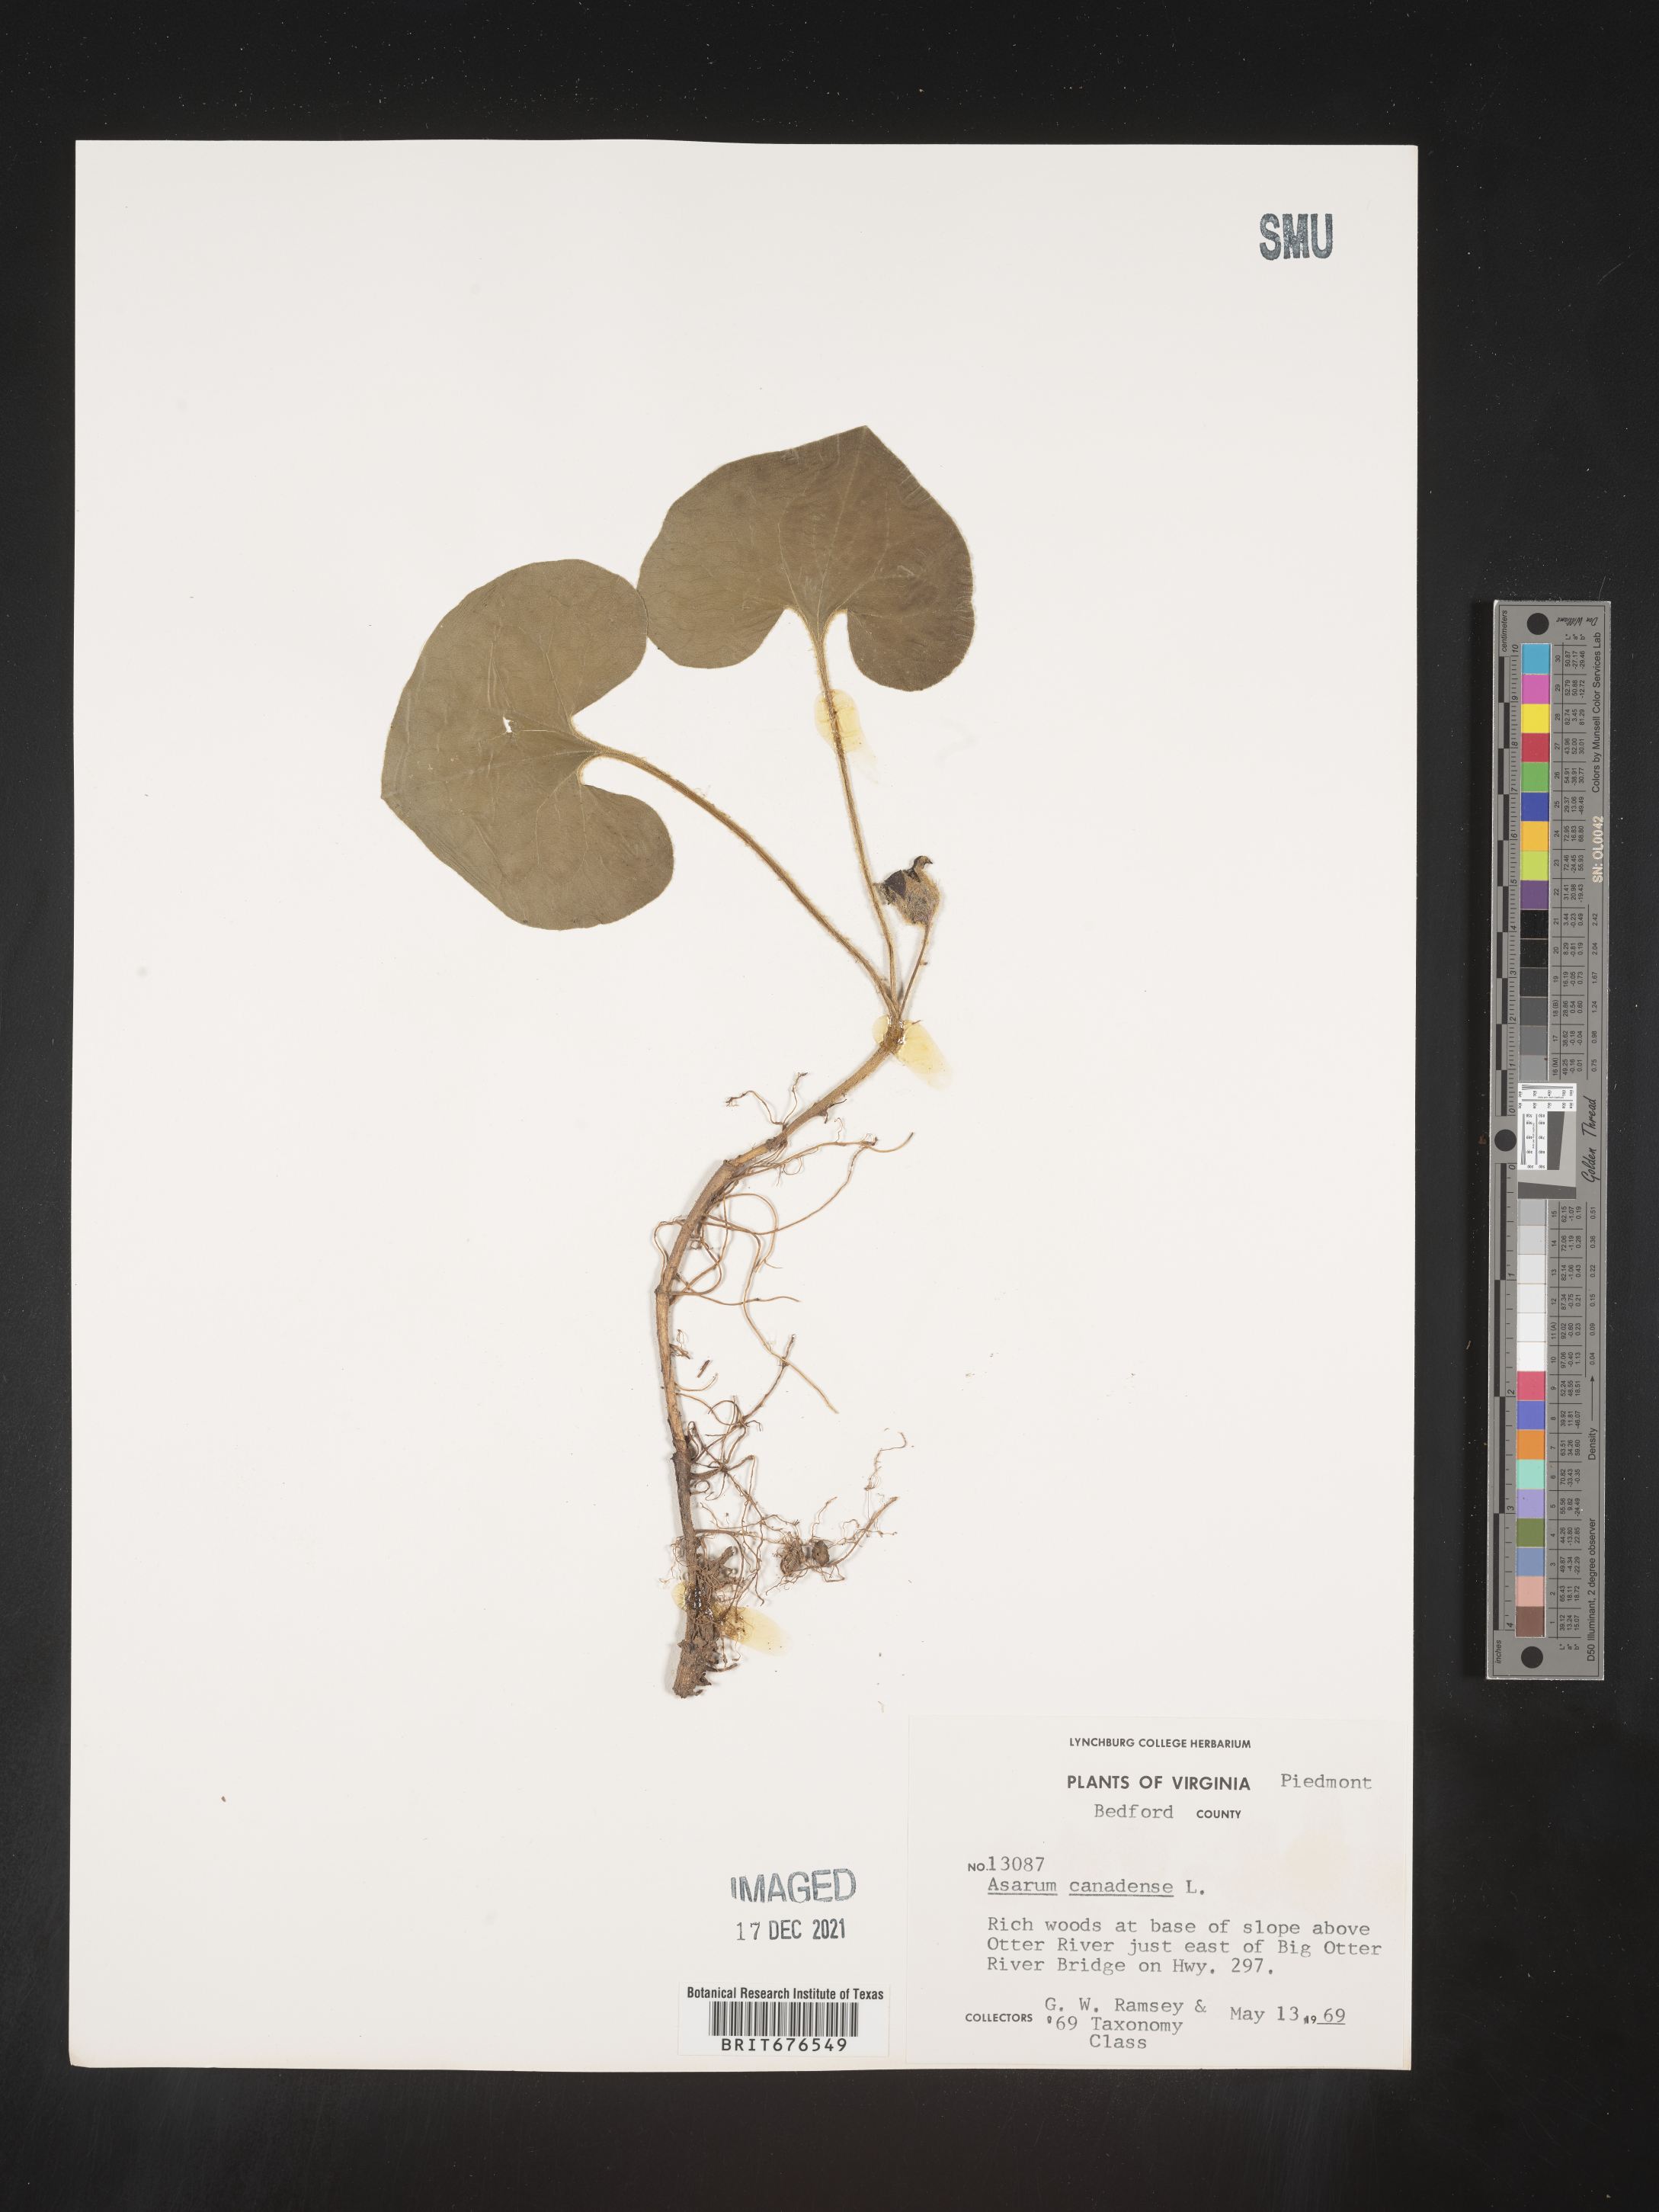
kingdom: Plantae
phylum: Tracheophyta
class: Magnoliopsida
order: Piperales
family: Aristolochiaceae
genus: Asarum
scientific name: Asarum canadense
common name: Wild ginger
